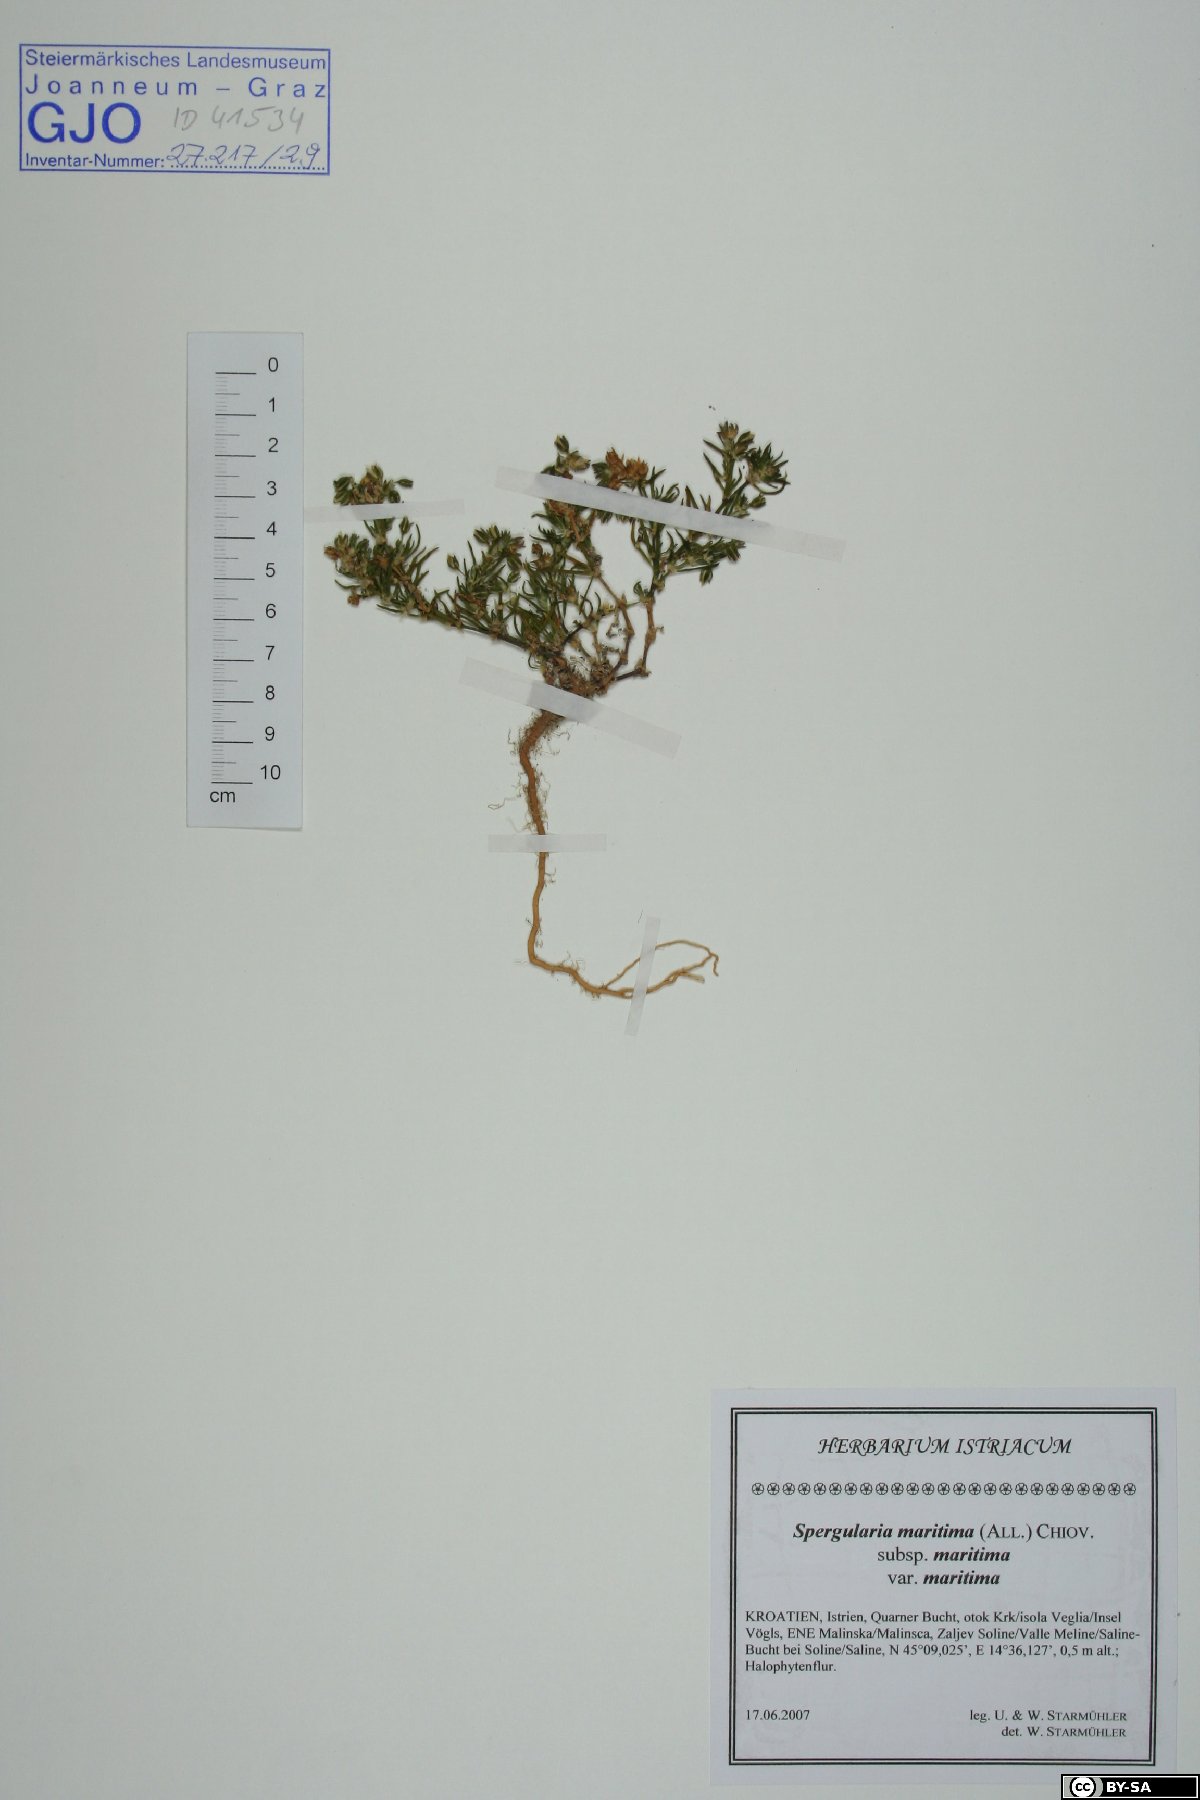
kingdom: Plantae
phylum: Tracheophyta
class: Magnoliopsida
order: Caryophyllales
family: Caryophyllaceae
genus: Spergularia
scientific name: Spergularia
